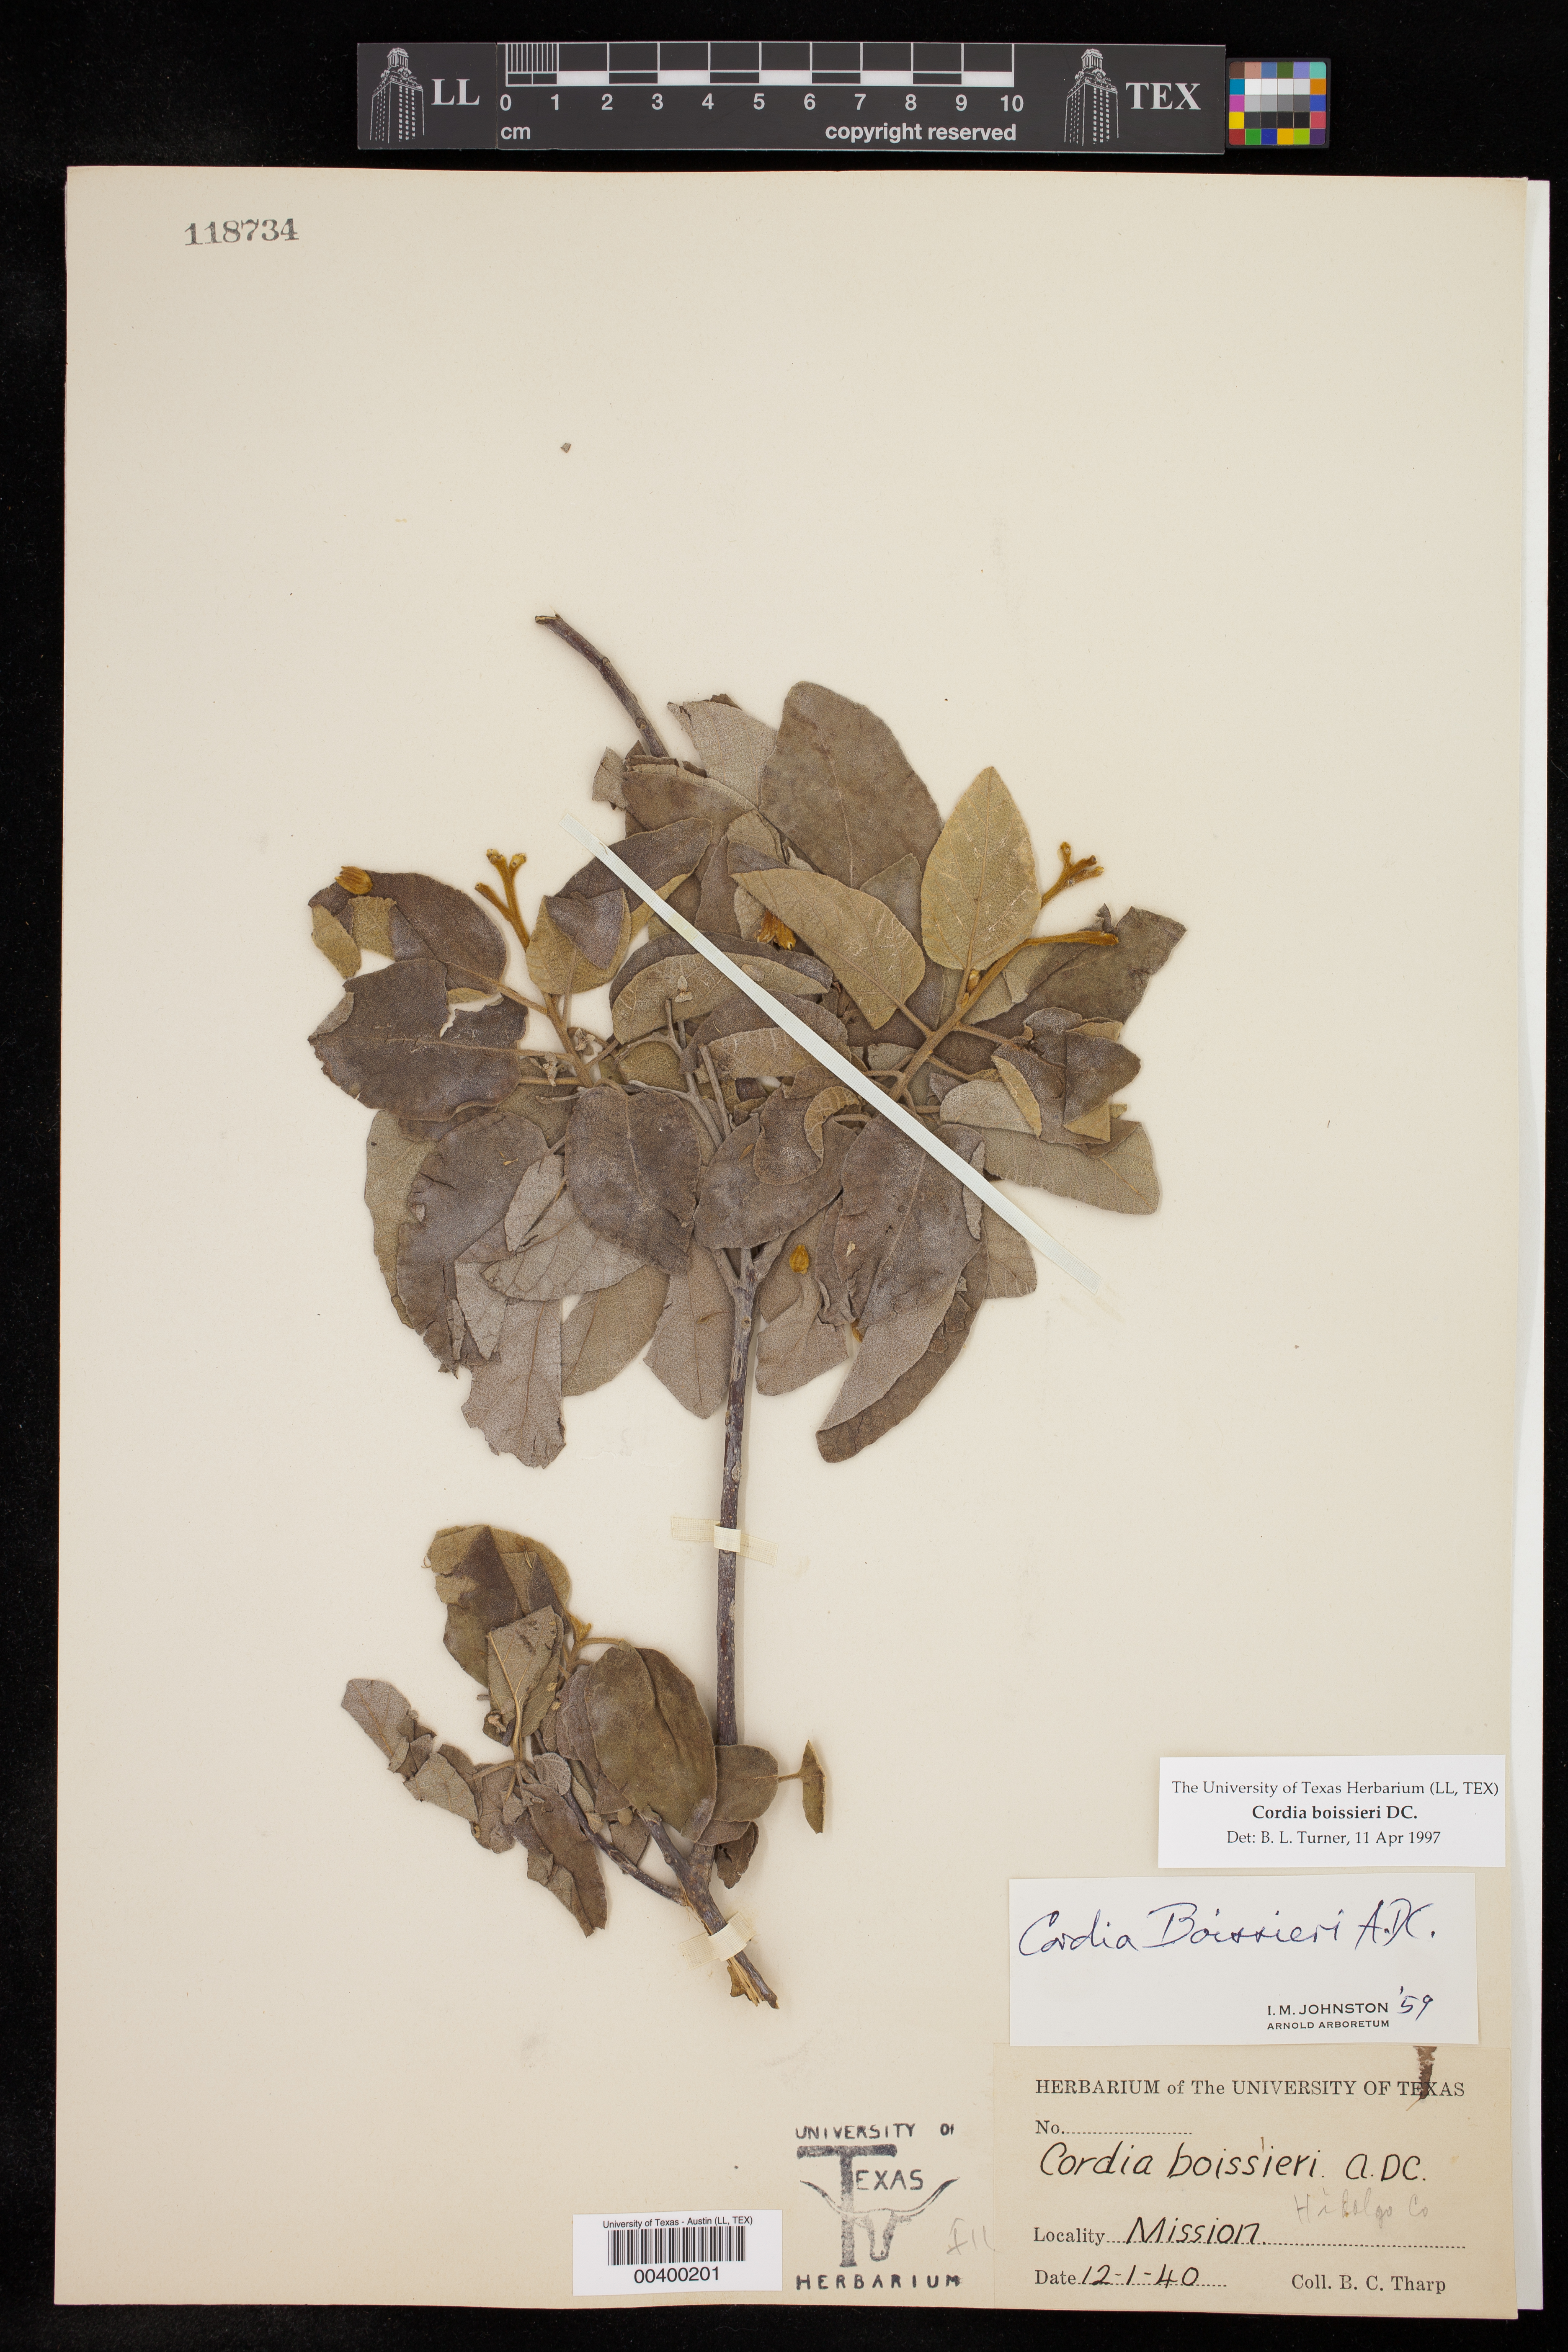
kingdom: Plantae
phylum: Tracheophyta
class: Magnoliopsida
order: Boraginales
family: Cordiaceae
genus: Cordia
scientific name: Cordia boissieri
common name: Mexican-olive
